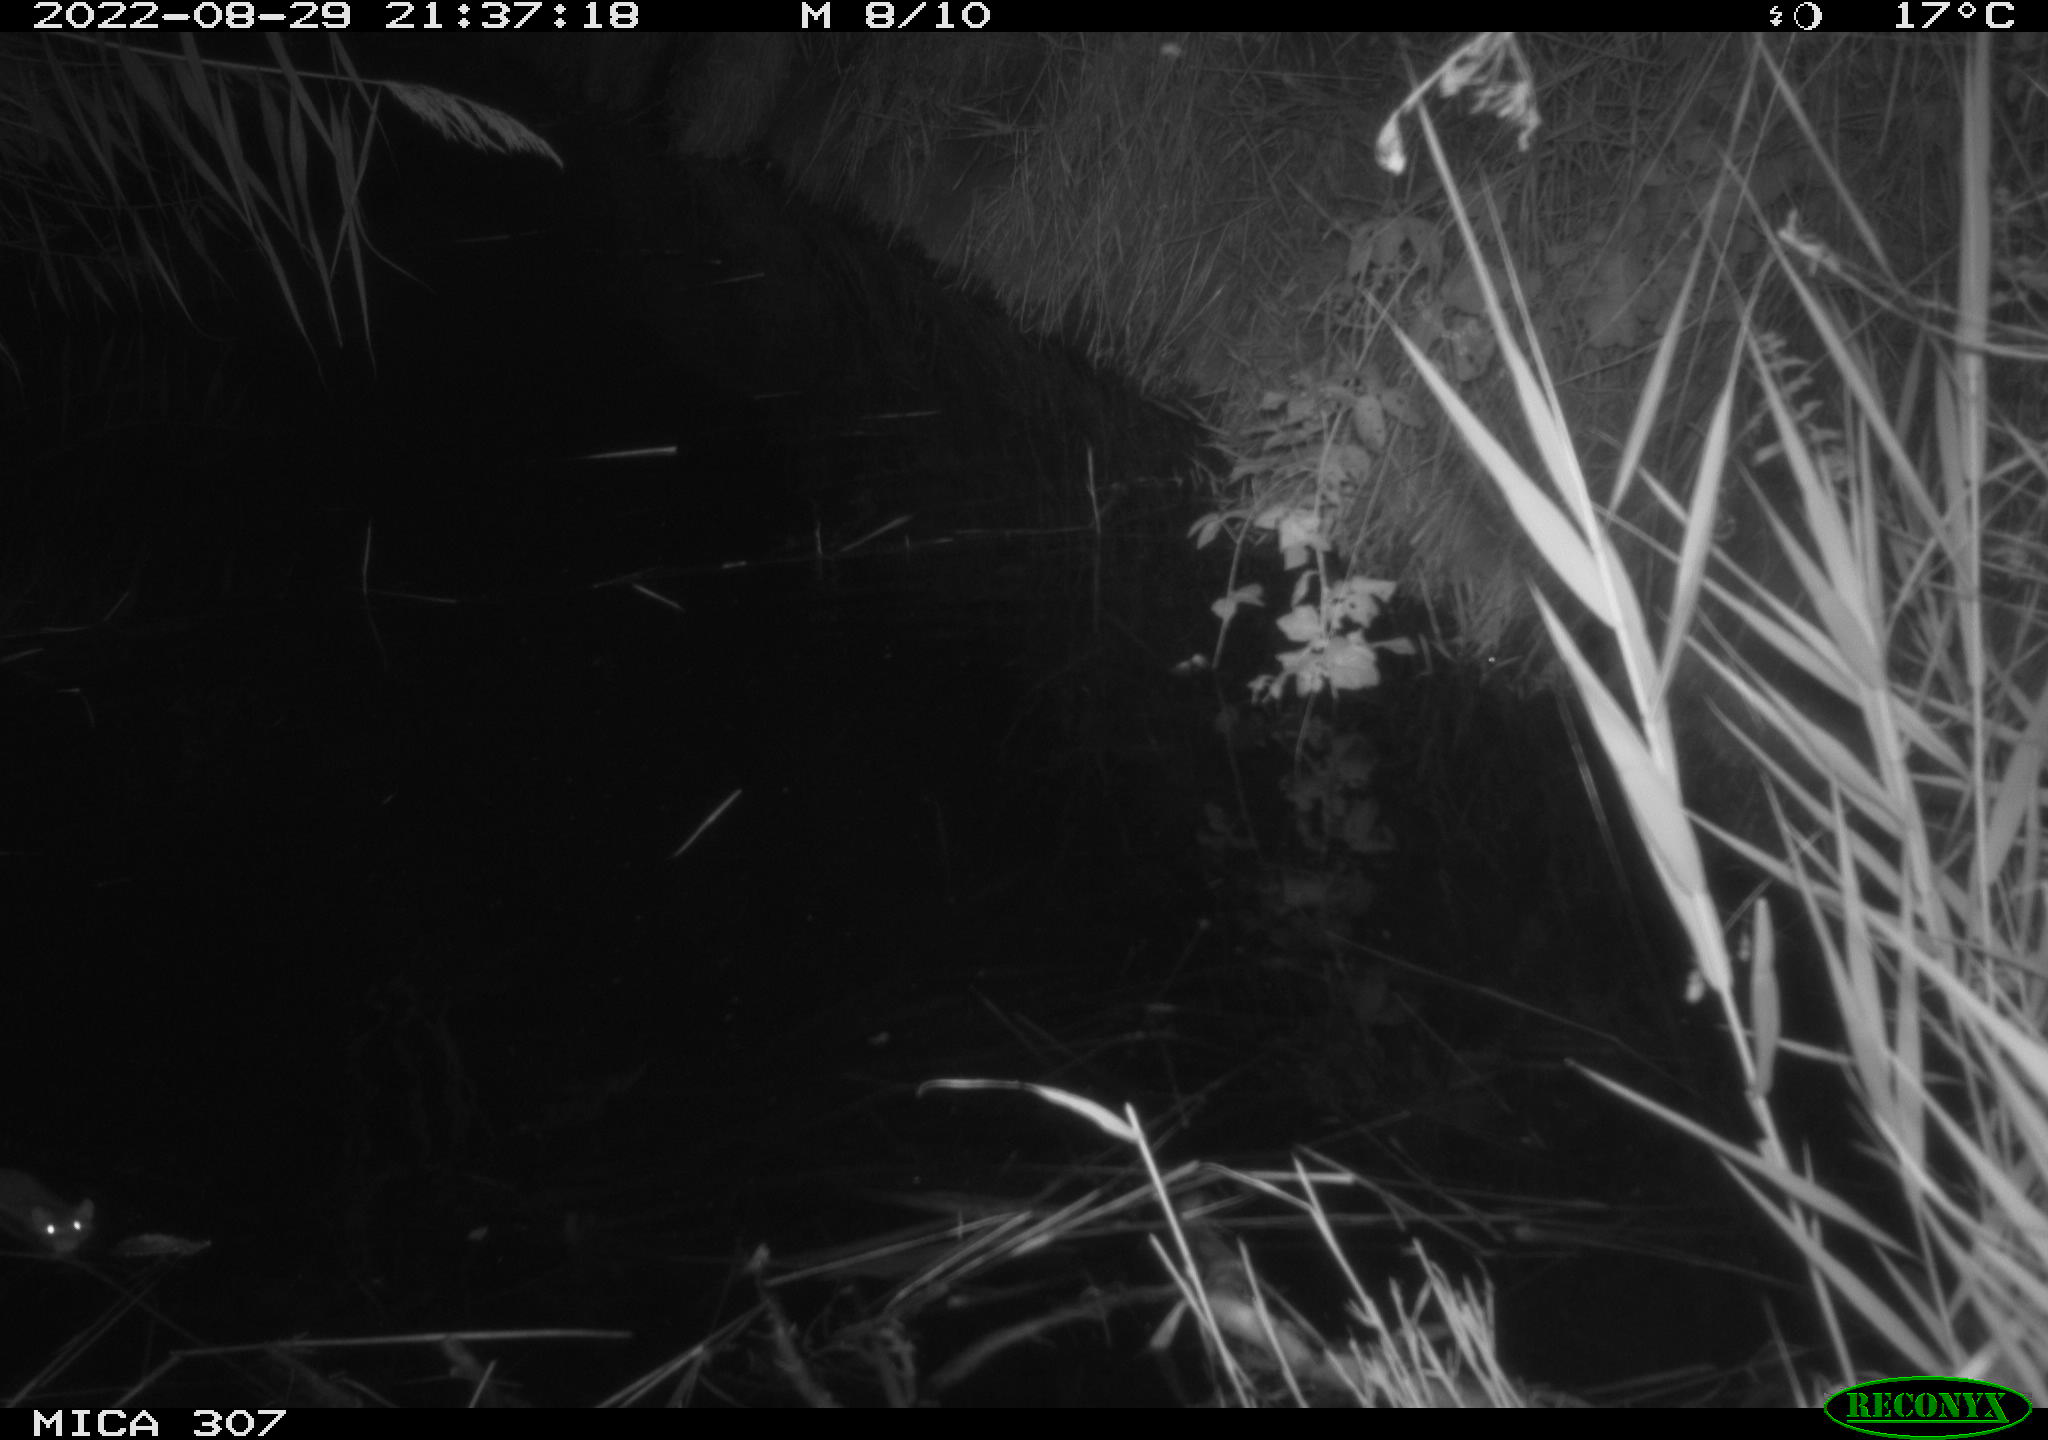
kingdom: Animalia
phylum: Chordata
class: Mammalia
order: Rodentia
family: Muridae
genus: Rattus
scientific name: Rattus norvegicus
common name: Brown rat
